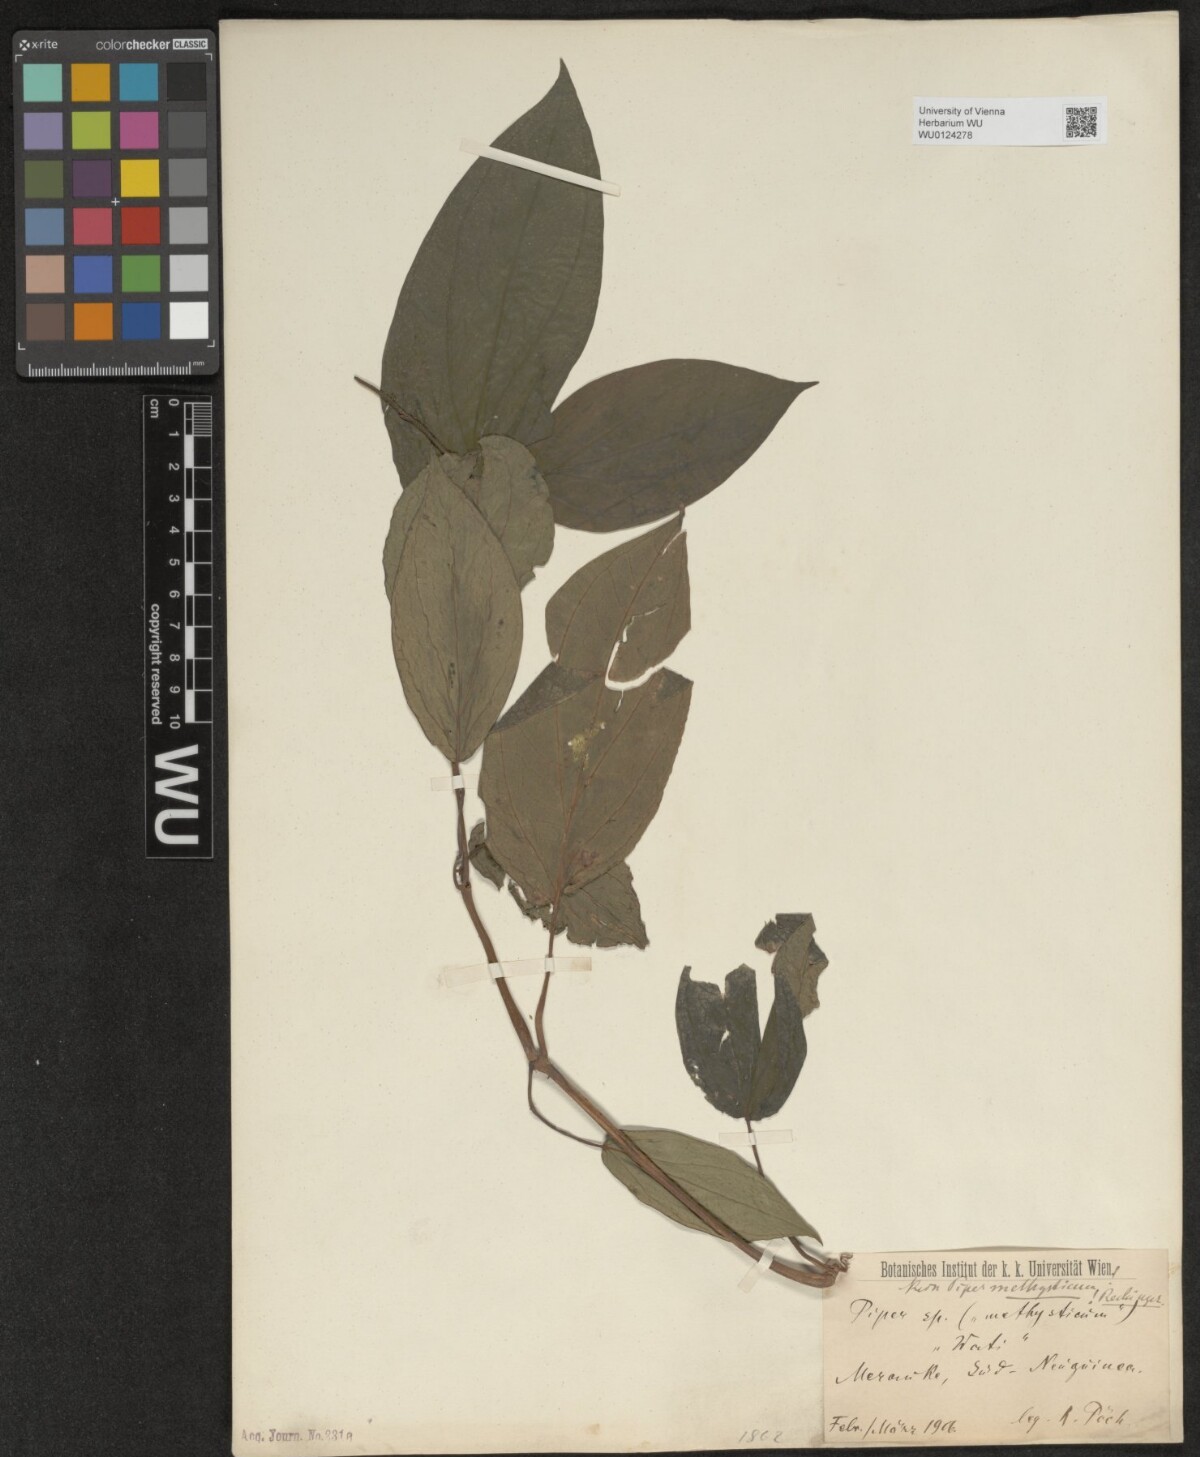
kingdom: Plantae
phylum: Tracheophyta
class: Magnoliopsida
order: Piperales
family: Piperaceae
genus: Piper
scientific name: Piper
